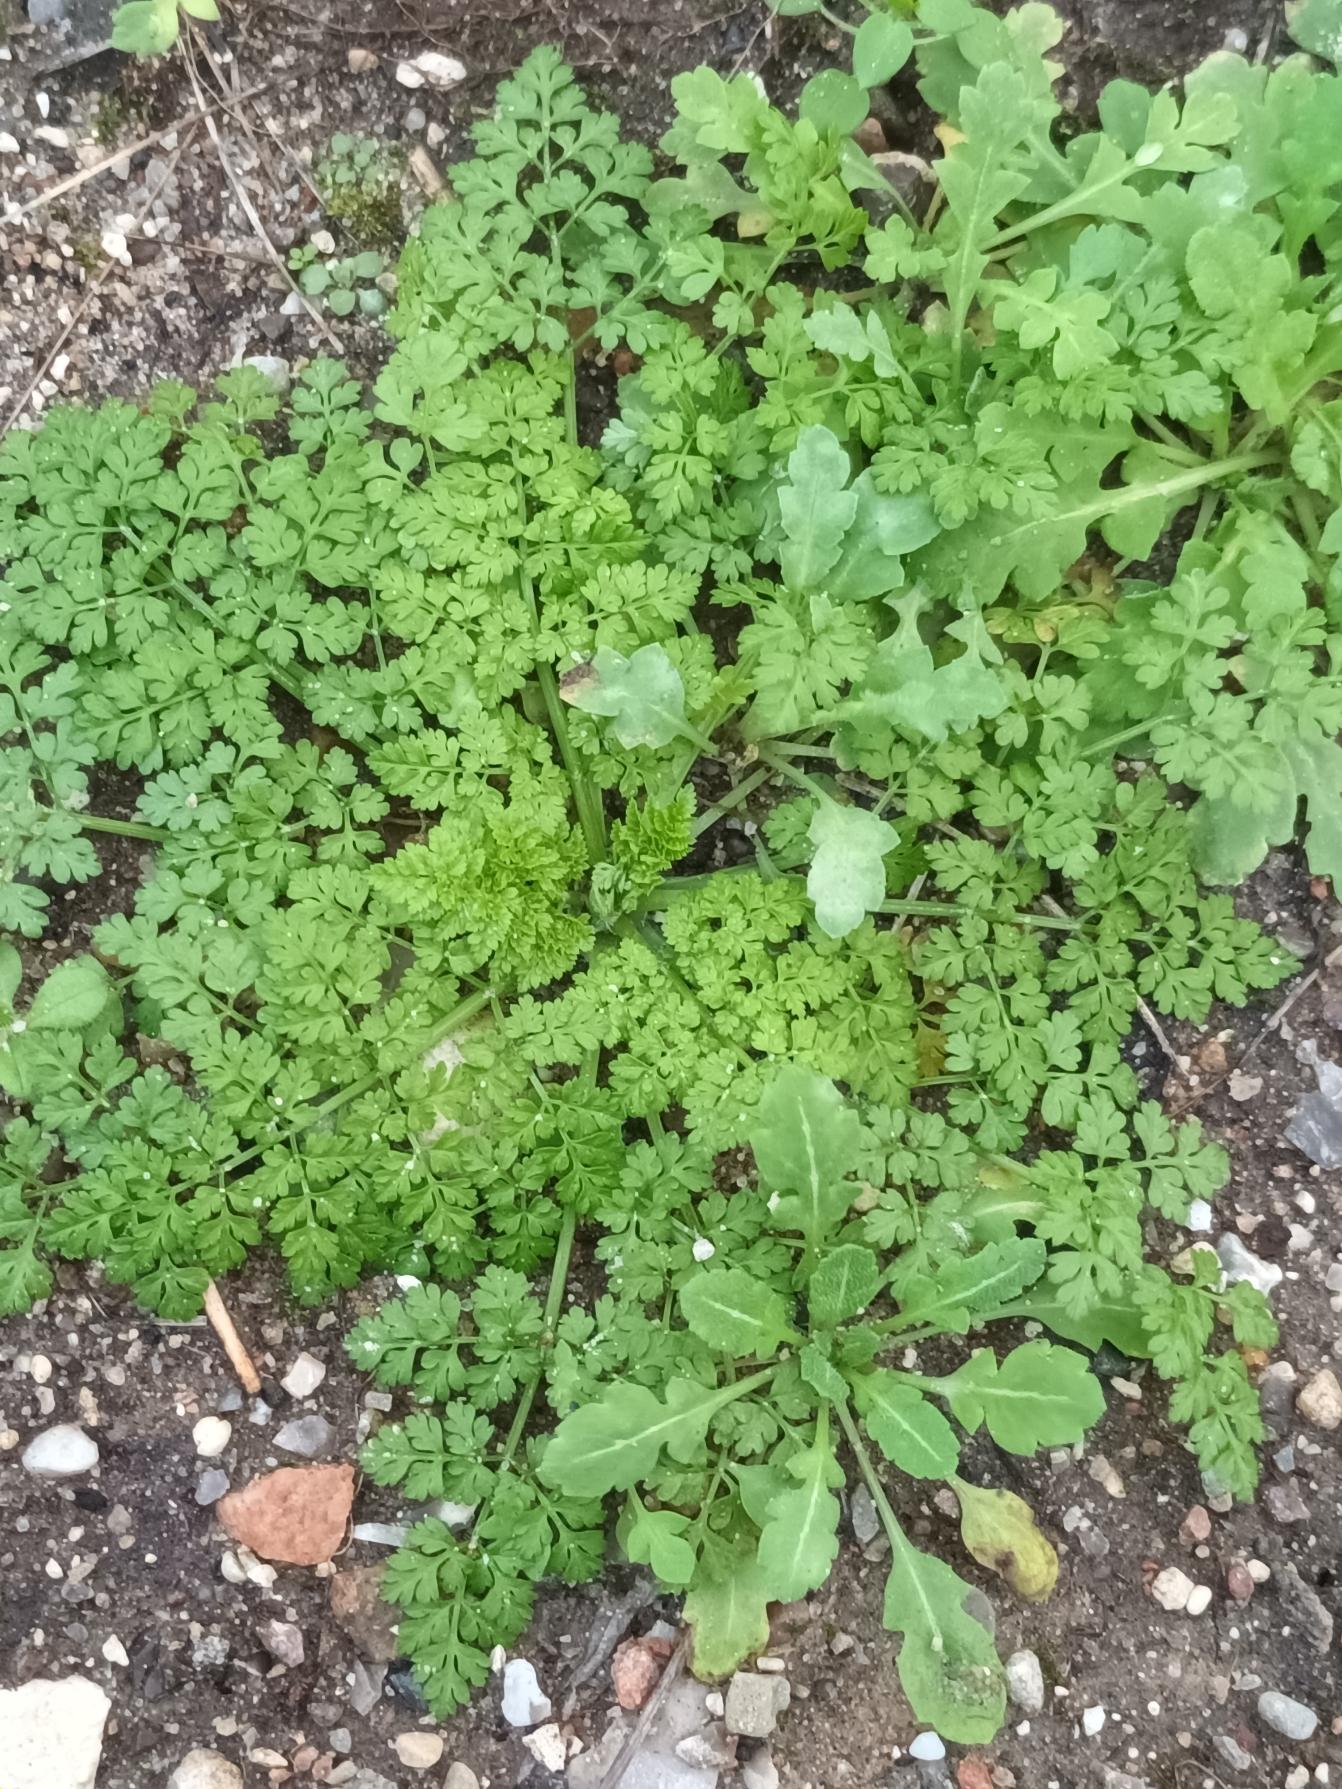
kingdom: Plantae
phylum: Tracheophyta
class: Magnoliopsida
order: Apiales
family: Apiaceae
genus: Anthriscus
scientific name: Anthriscus caucalis
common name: Gærde-kørvel
